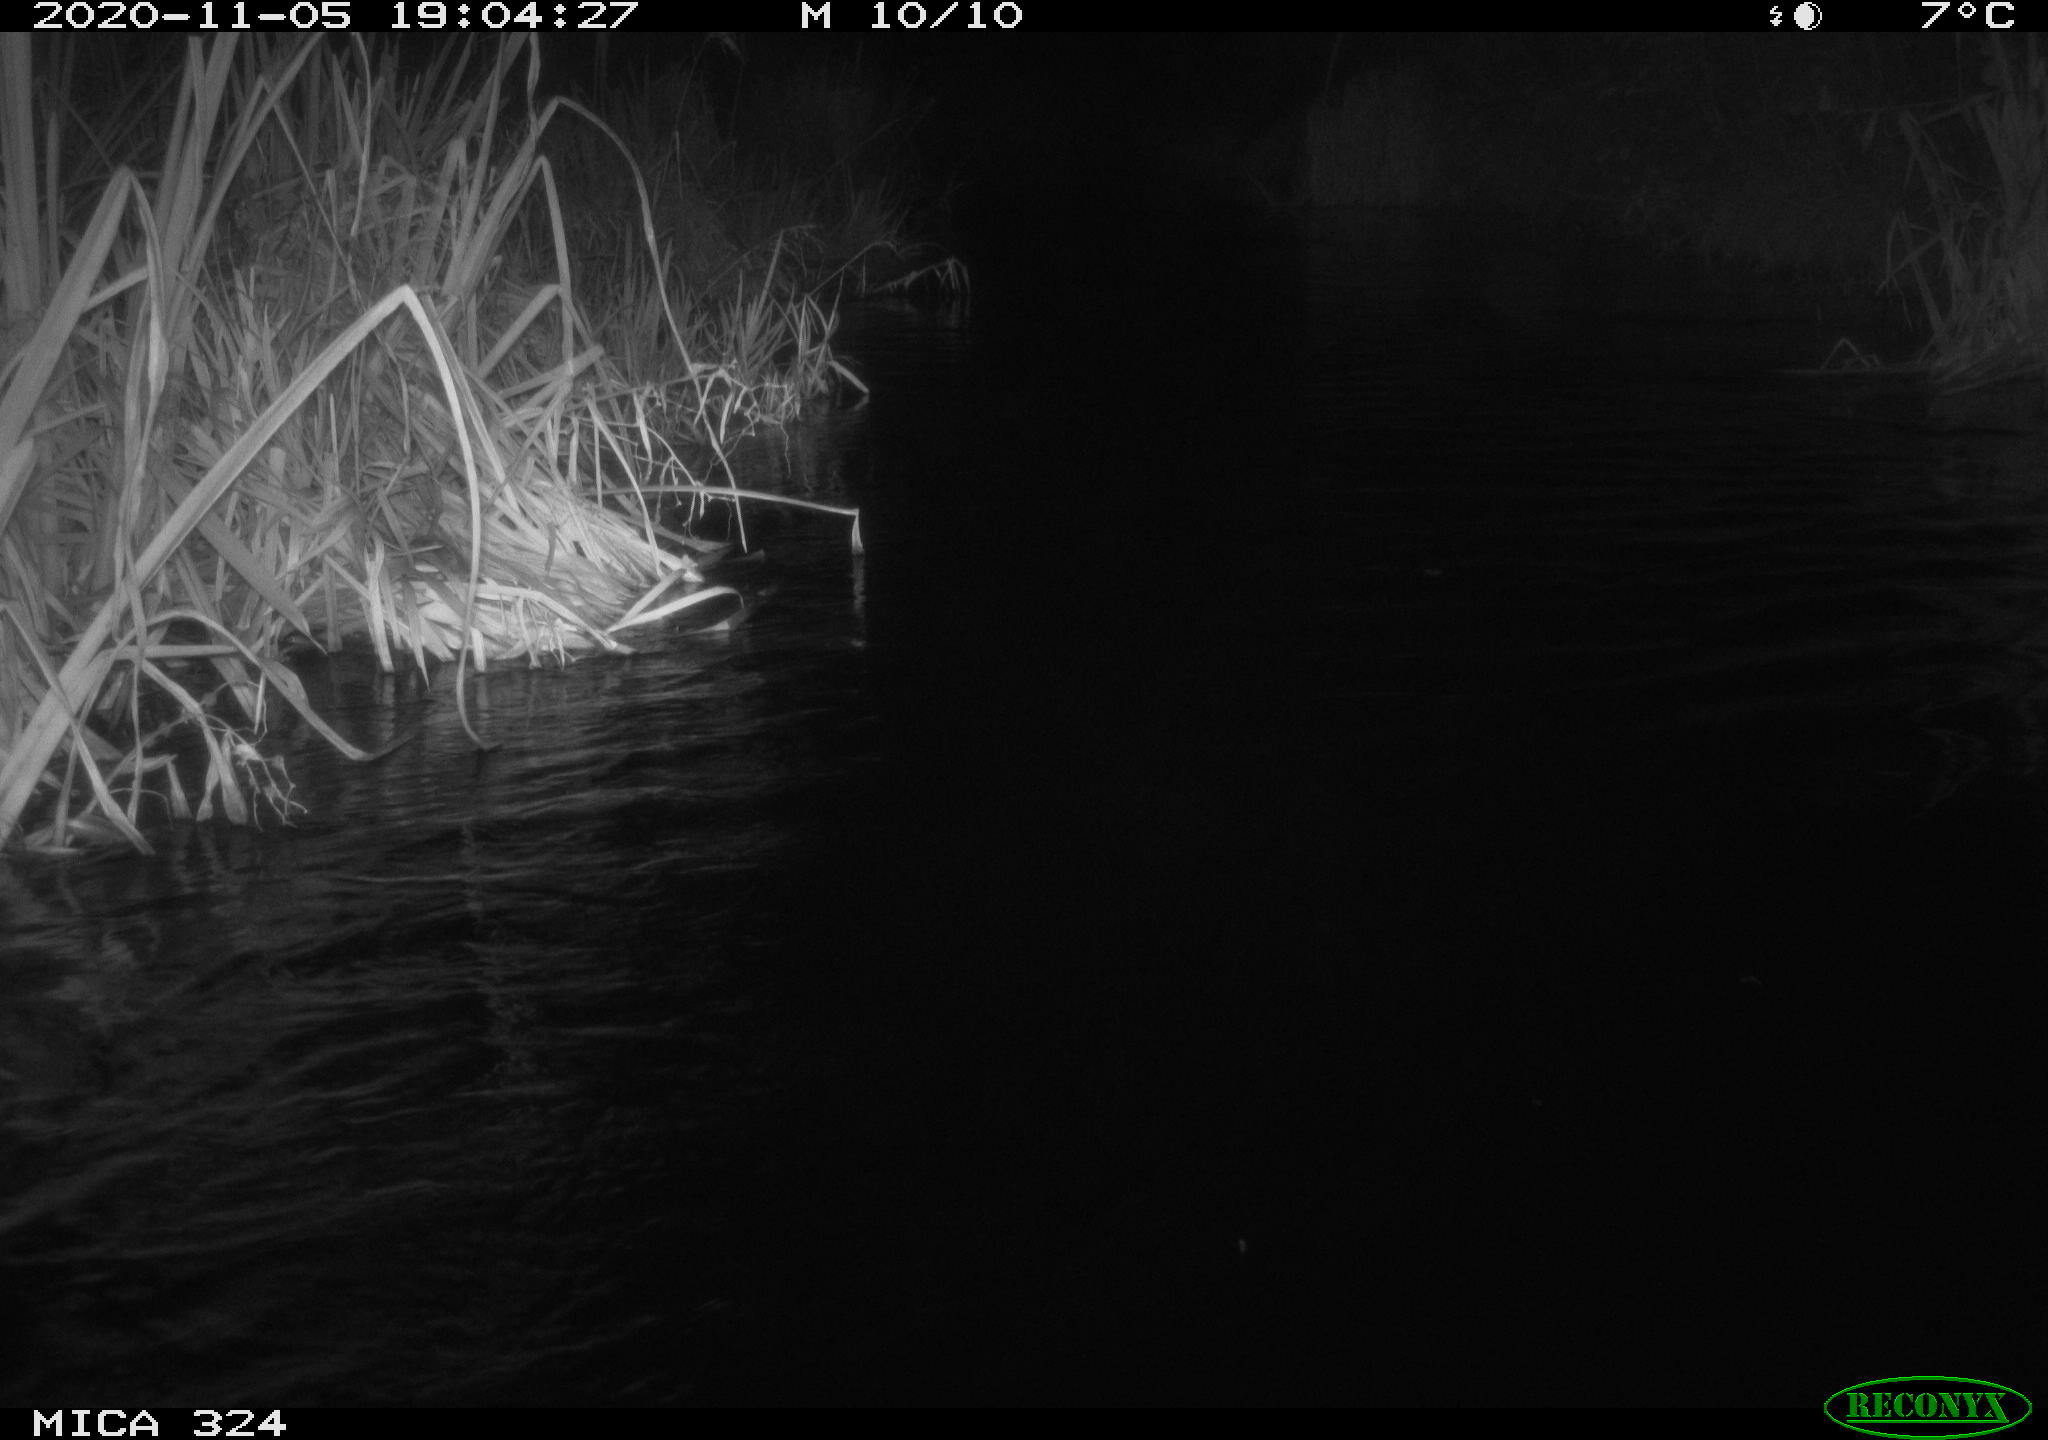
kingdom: Animalia
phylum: Chordata
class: Mammalia
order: Rodentia
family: Myocastoridae
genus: Myocastor
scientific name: Myocastor coypus
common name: Coypu
